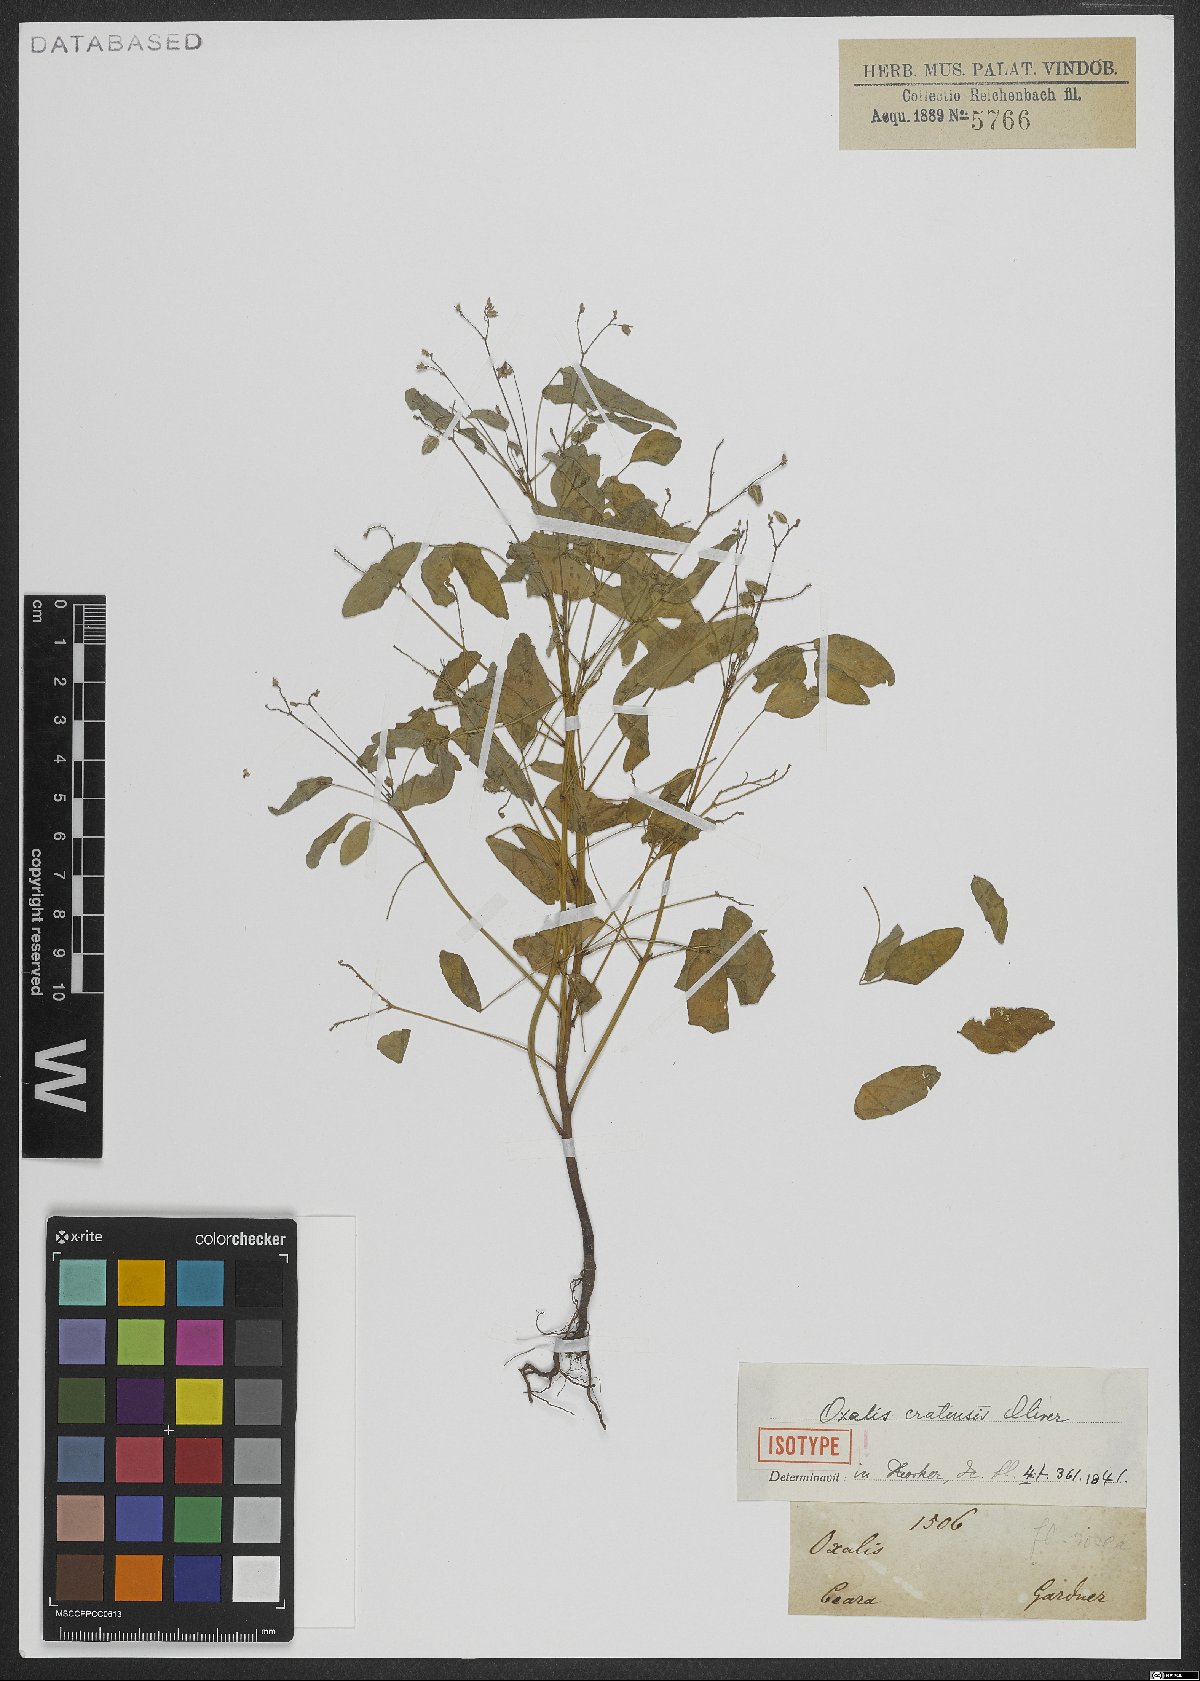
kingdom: Plantae
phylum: Tracheophyta
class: Magnoliopsida
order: Oxalidales
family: Oxalidaceae
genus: Oxalis
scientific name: Oxalis cratensis
